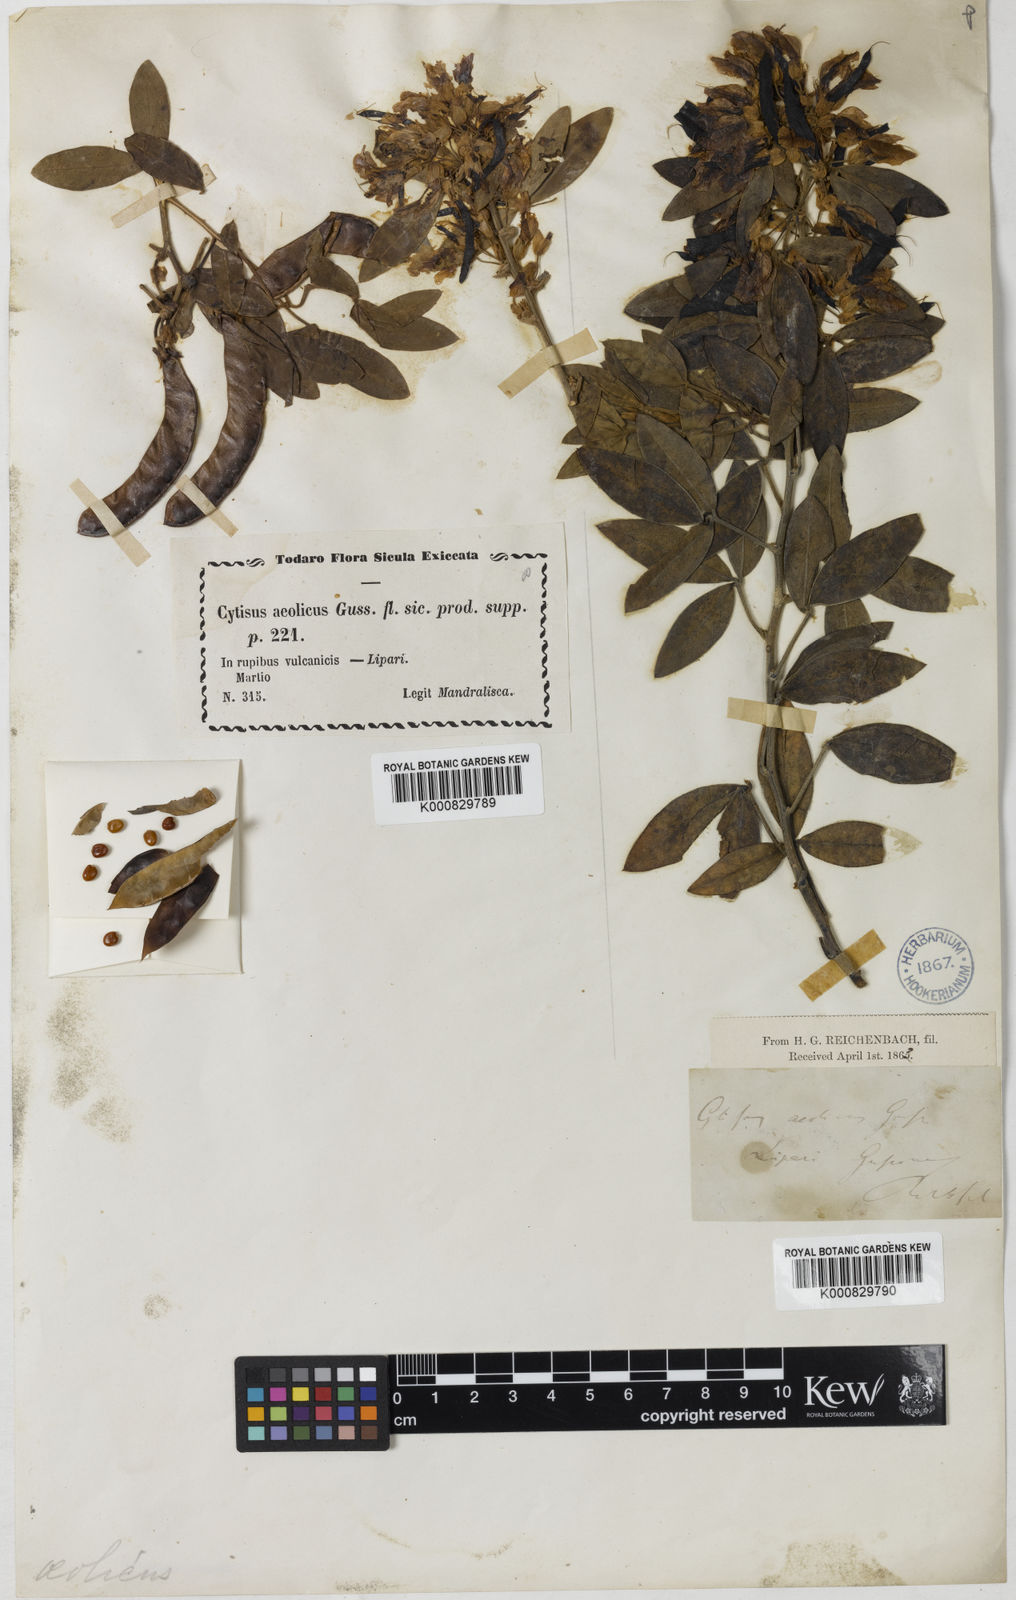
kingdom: Plantae
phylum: Tracheophyta
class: Magnoliopsida
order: Fabales
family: Fabaceae
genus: Cytisus
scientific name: Cytisus aeolicus
